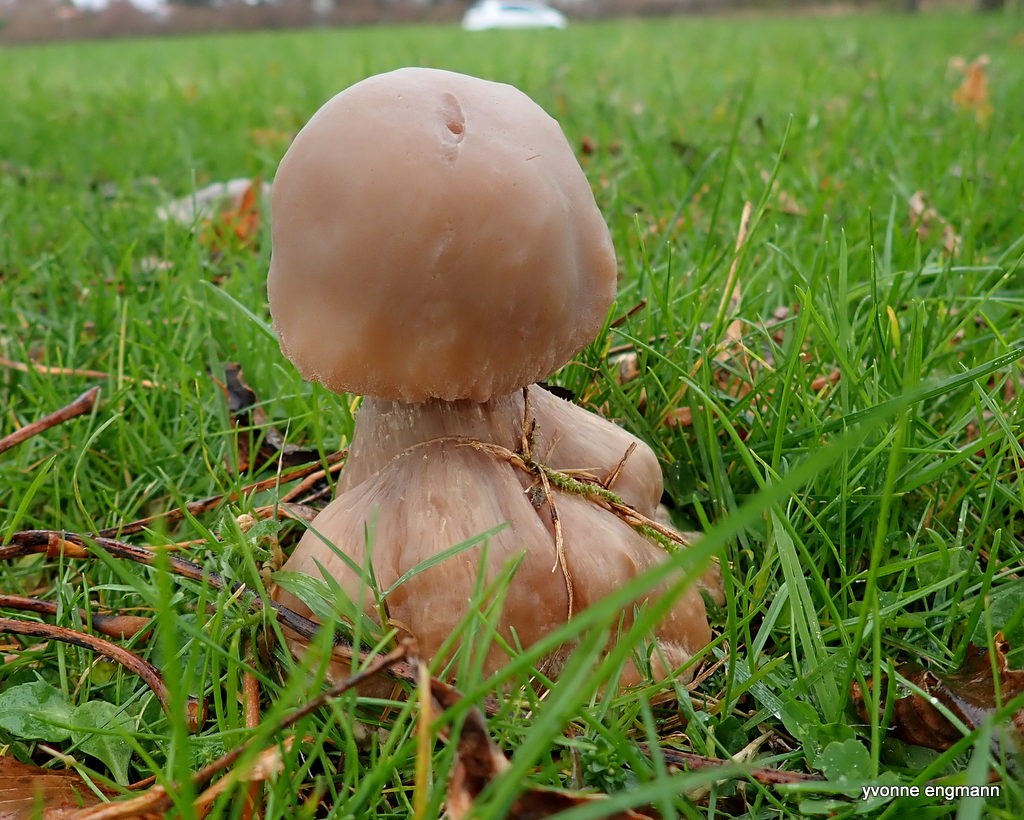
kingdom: Fungi
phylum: Basidiomycota
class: Agaricomycetes
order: Agaricales
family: Tricholomataceae
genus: Lepista
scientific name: Lepista personata
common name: bleg hekseringshat
